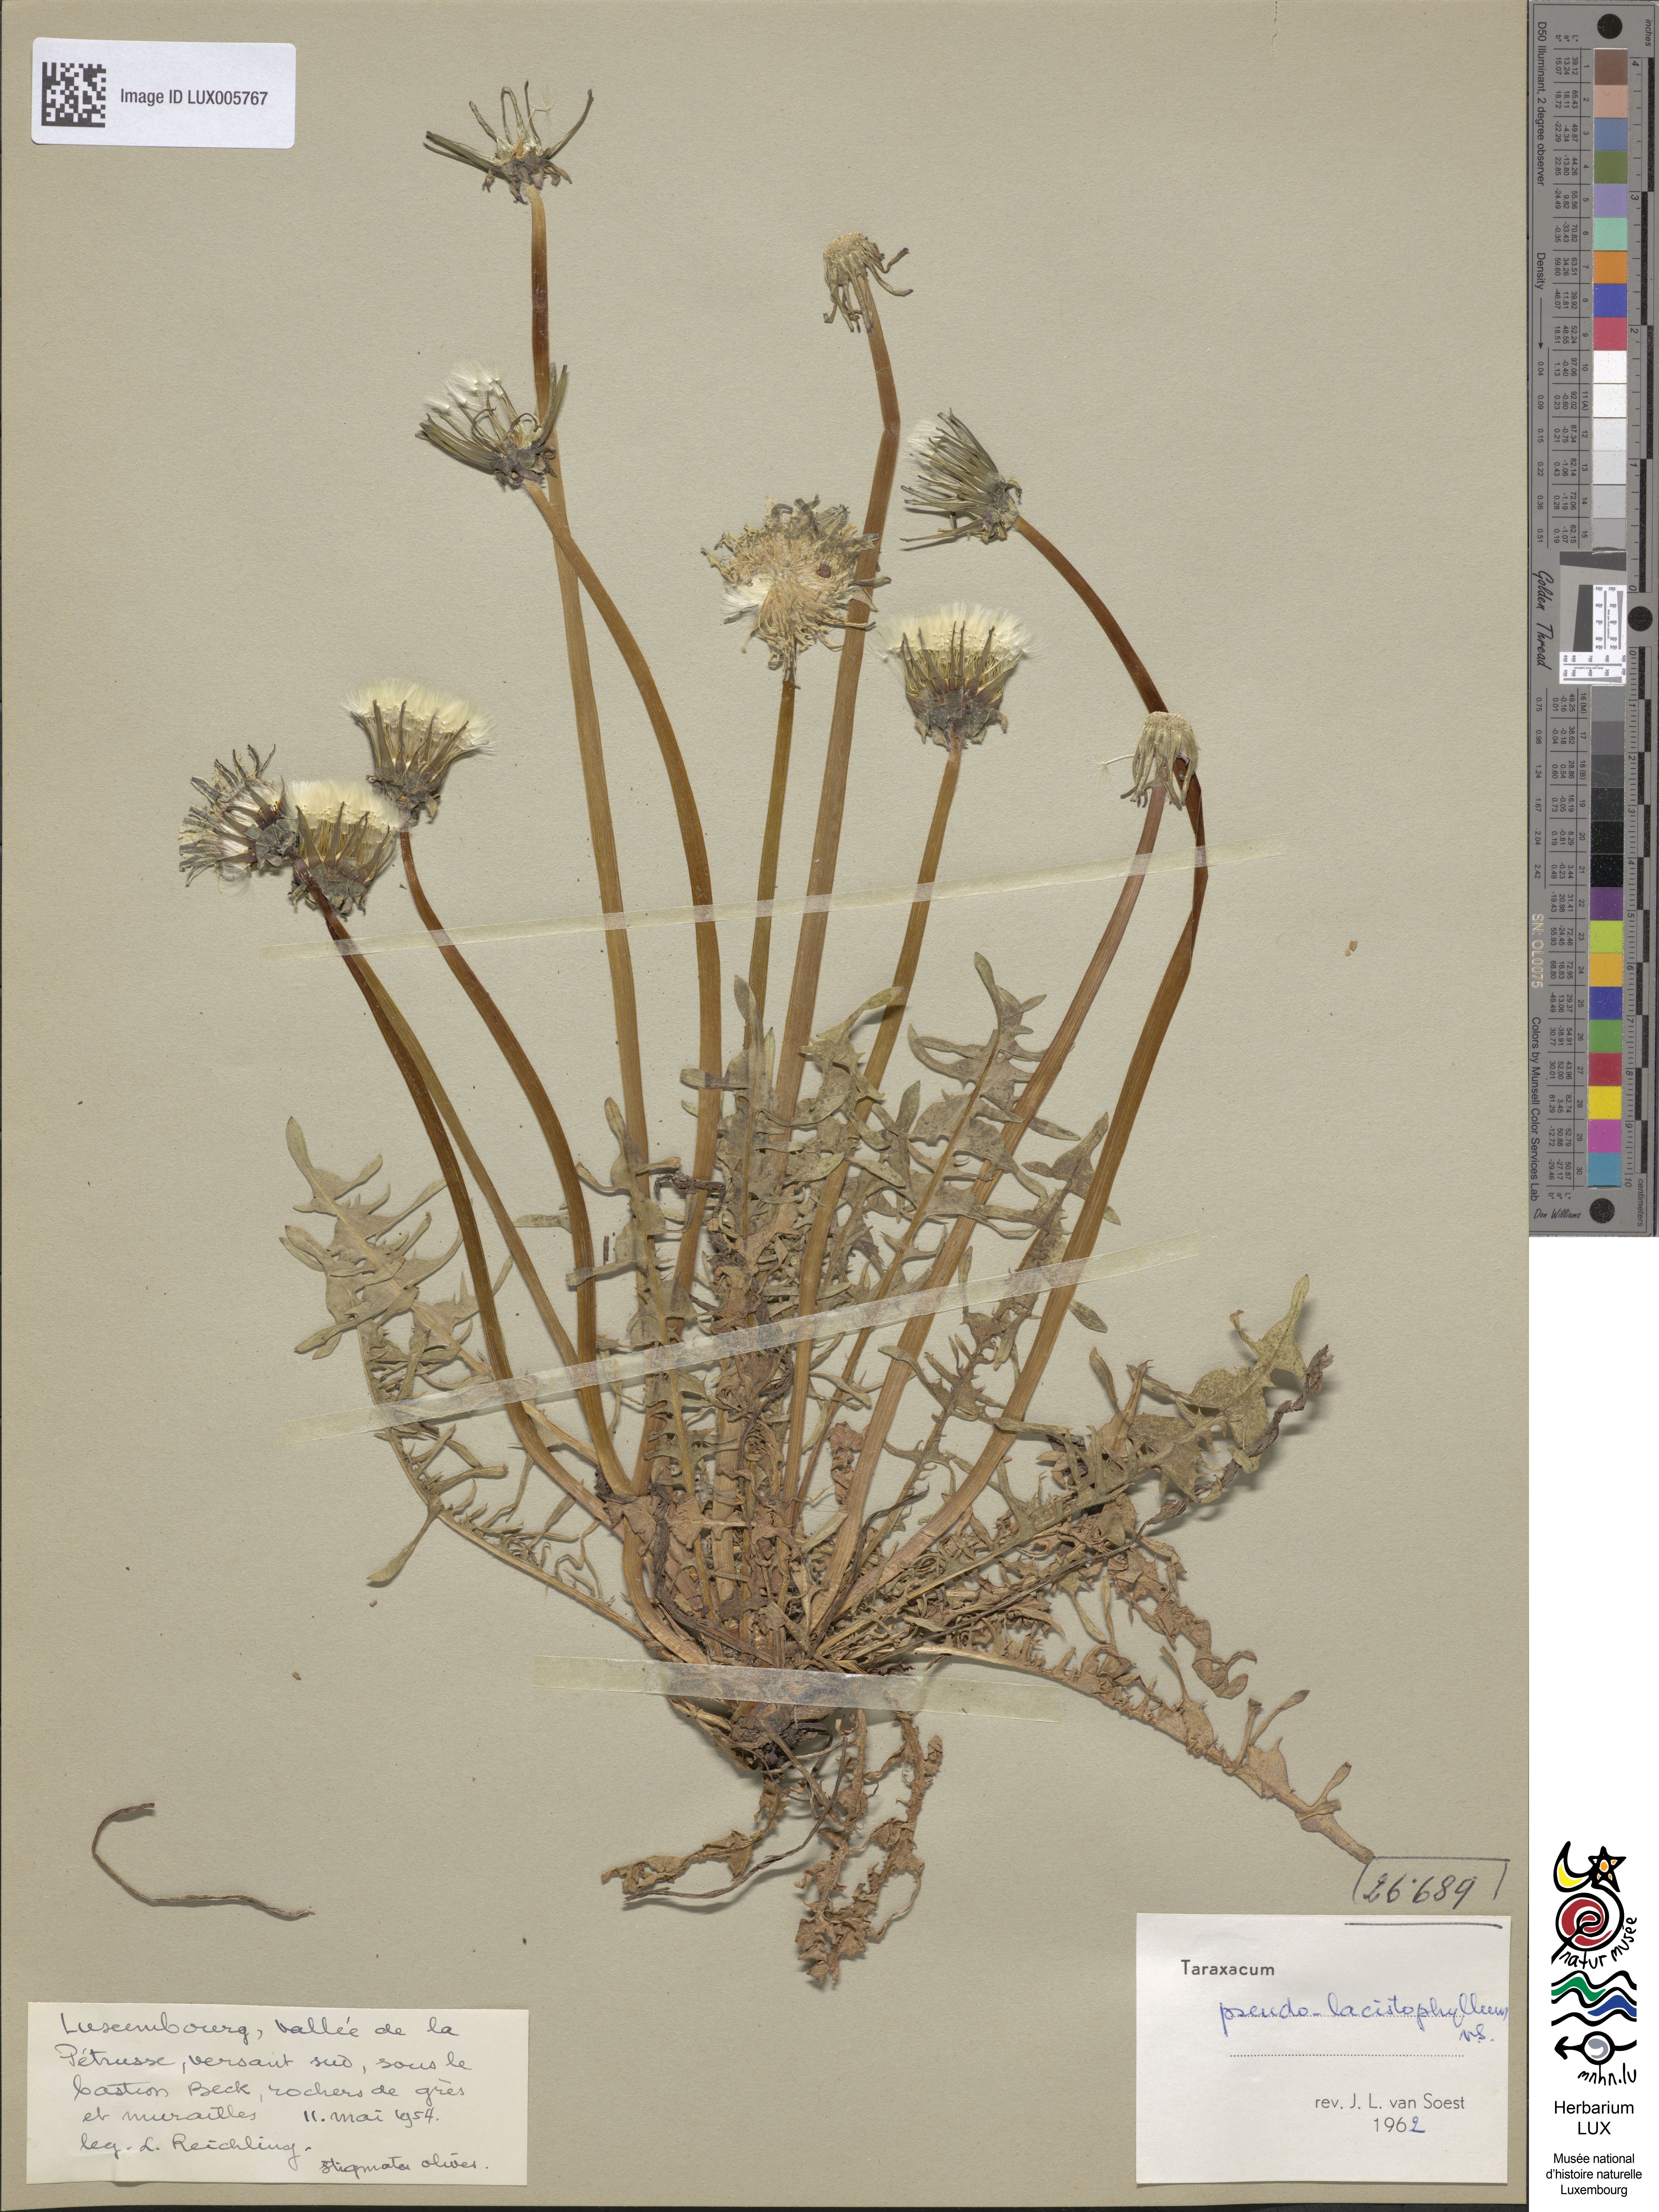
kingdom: Plantae
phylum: Tracheophyta
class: Magnoliopsida
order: Asterales
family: Asteraceae
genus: Taraxacum
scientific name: Taraxacum lacistophylloides
